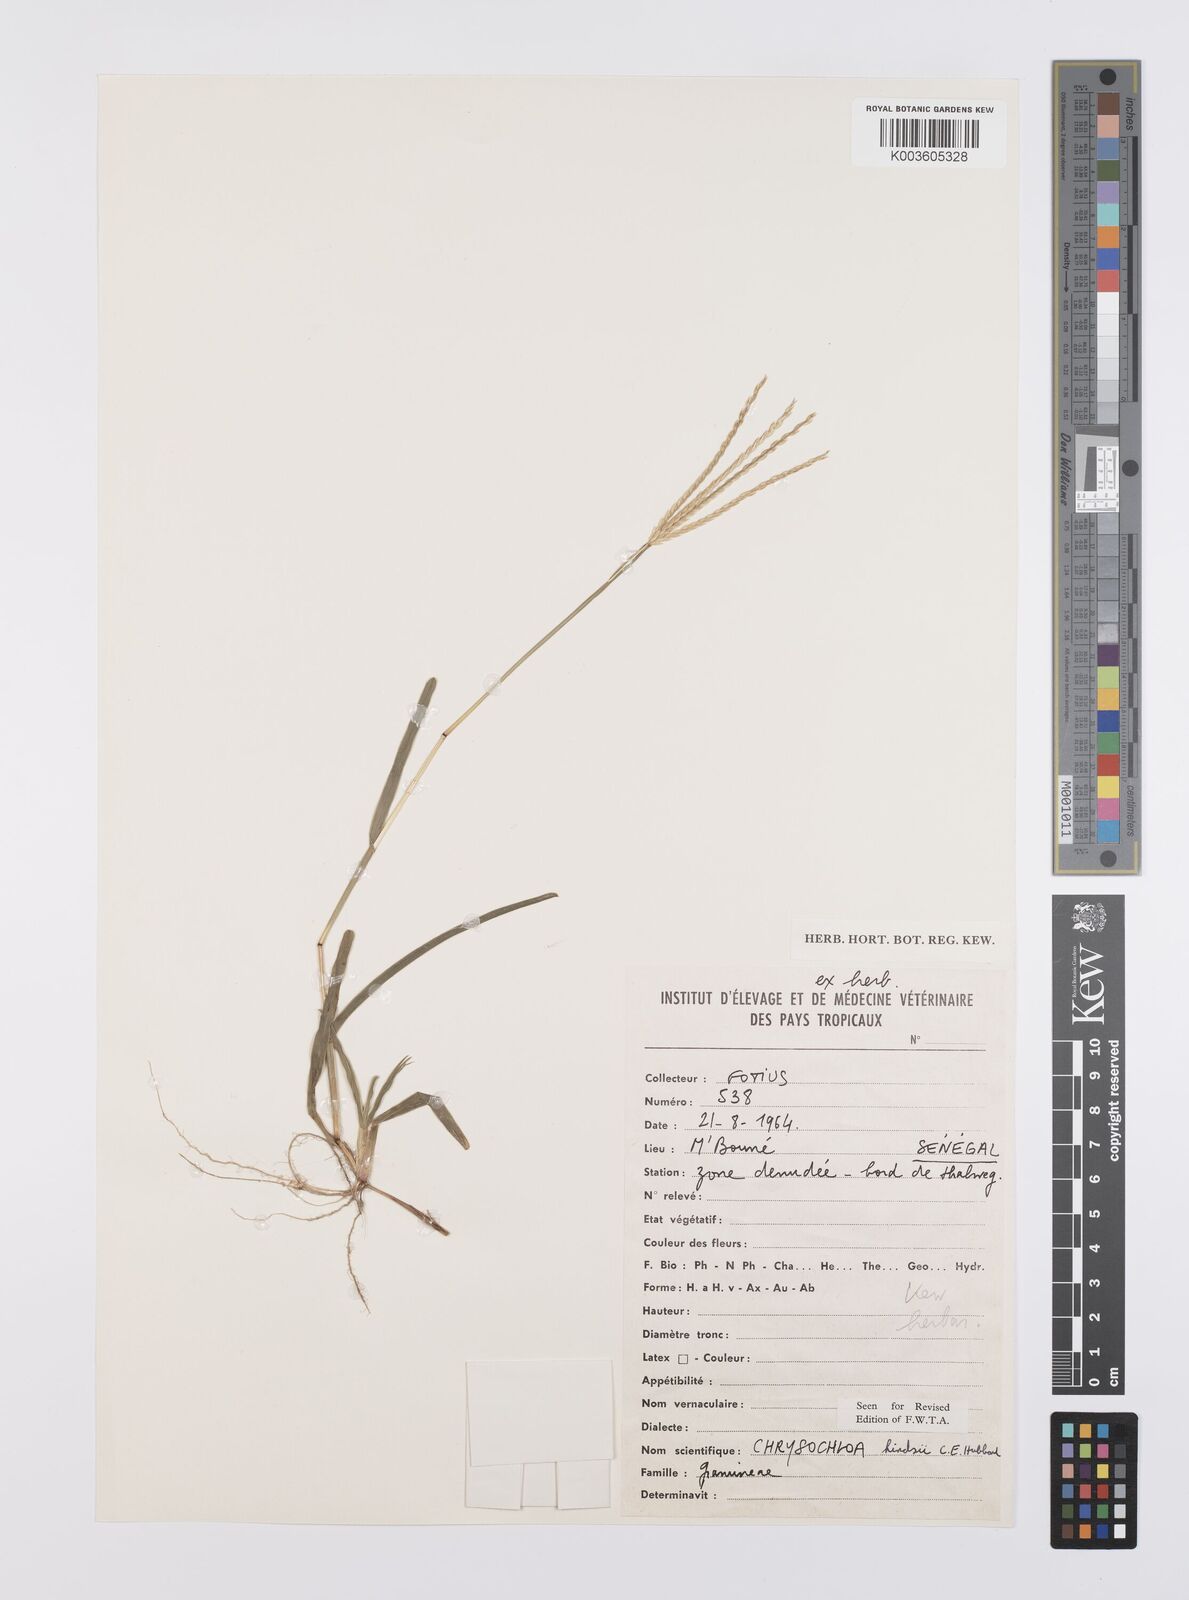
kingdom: Plantae
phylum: Tracheophyta
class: Liliopsida
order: Poales
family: Poaceae
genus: Chrysochloa
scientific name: Chrysochloa hindsii
